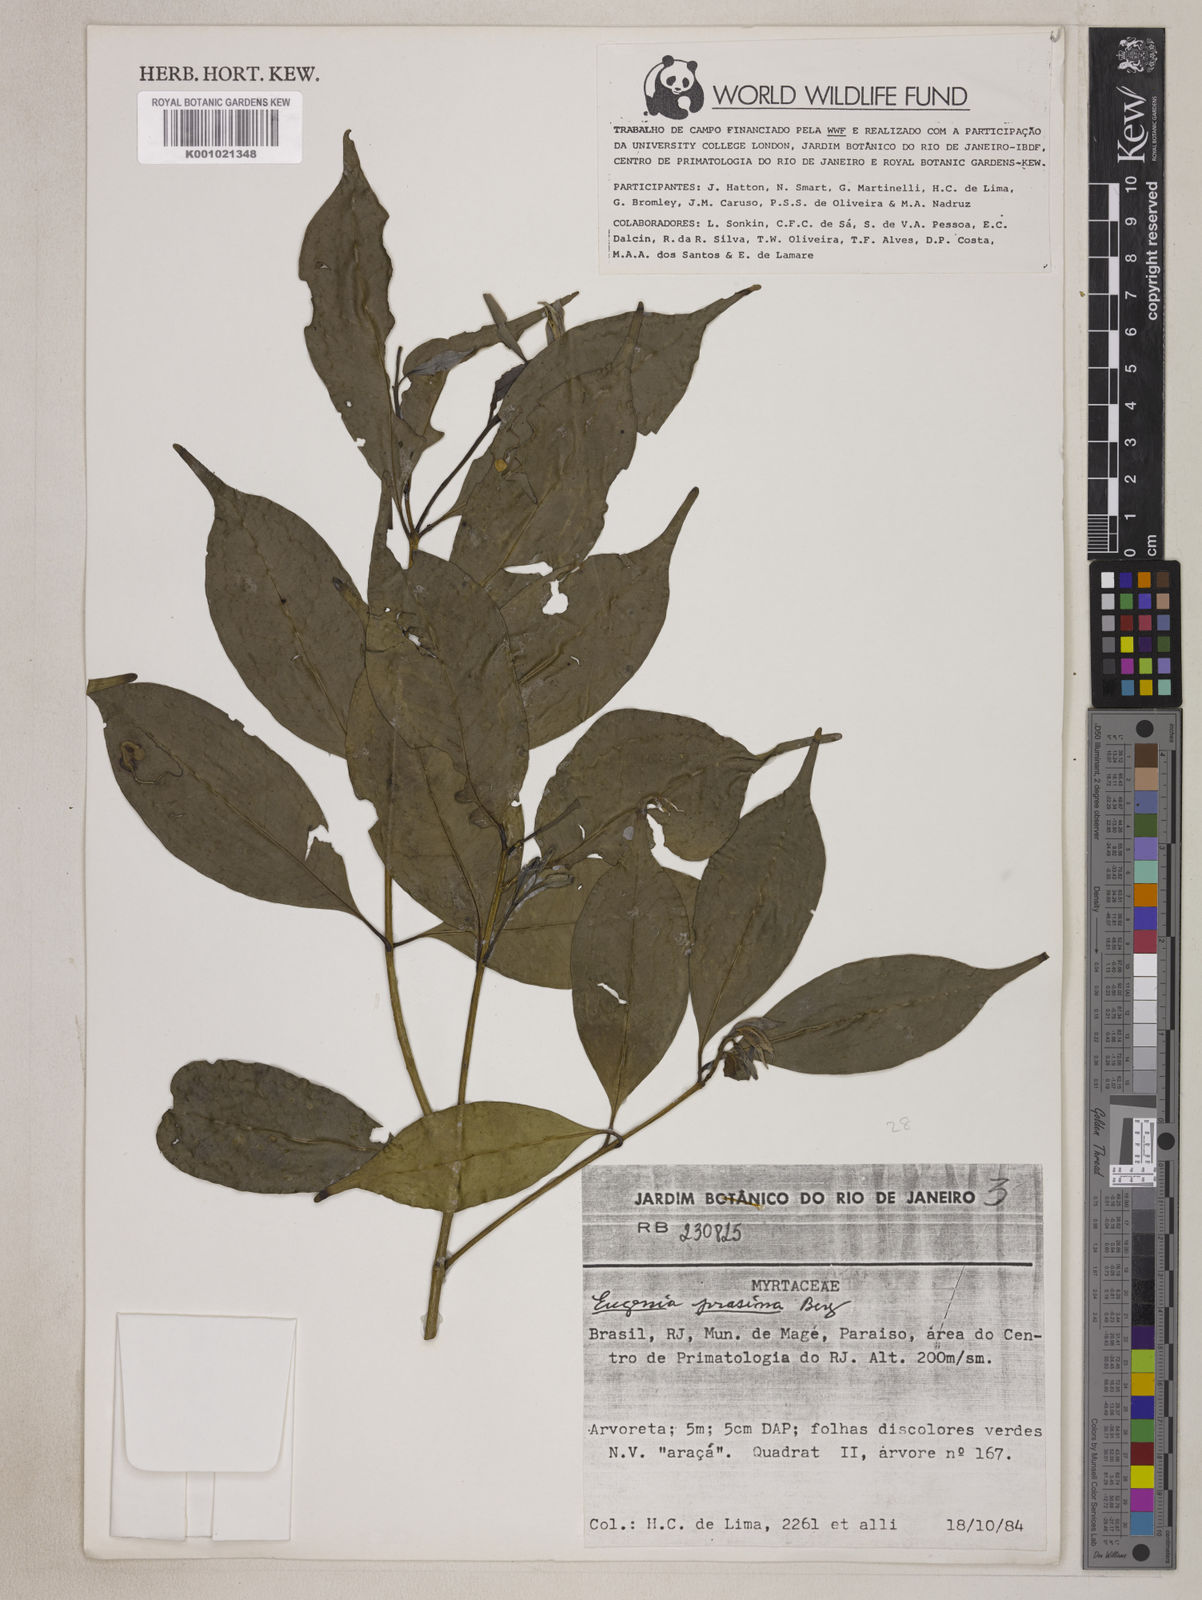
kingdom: Plantae
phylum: Tracheophyta
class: Magnoliopsida
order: Myrtales
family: Myrtaceae
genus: Eugenia
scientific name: Eugenia prasina
